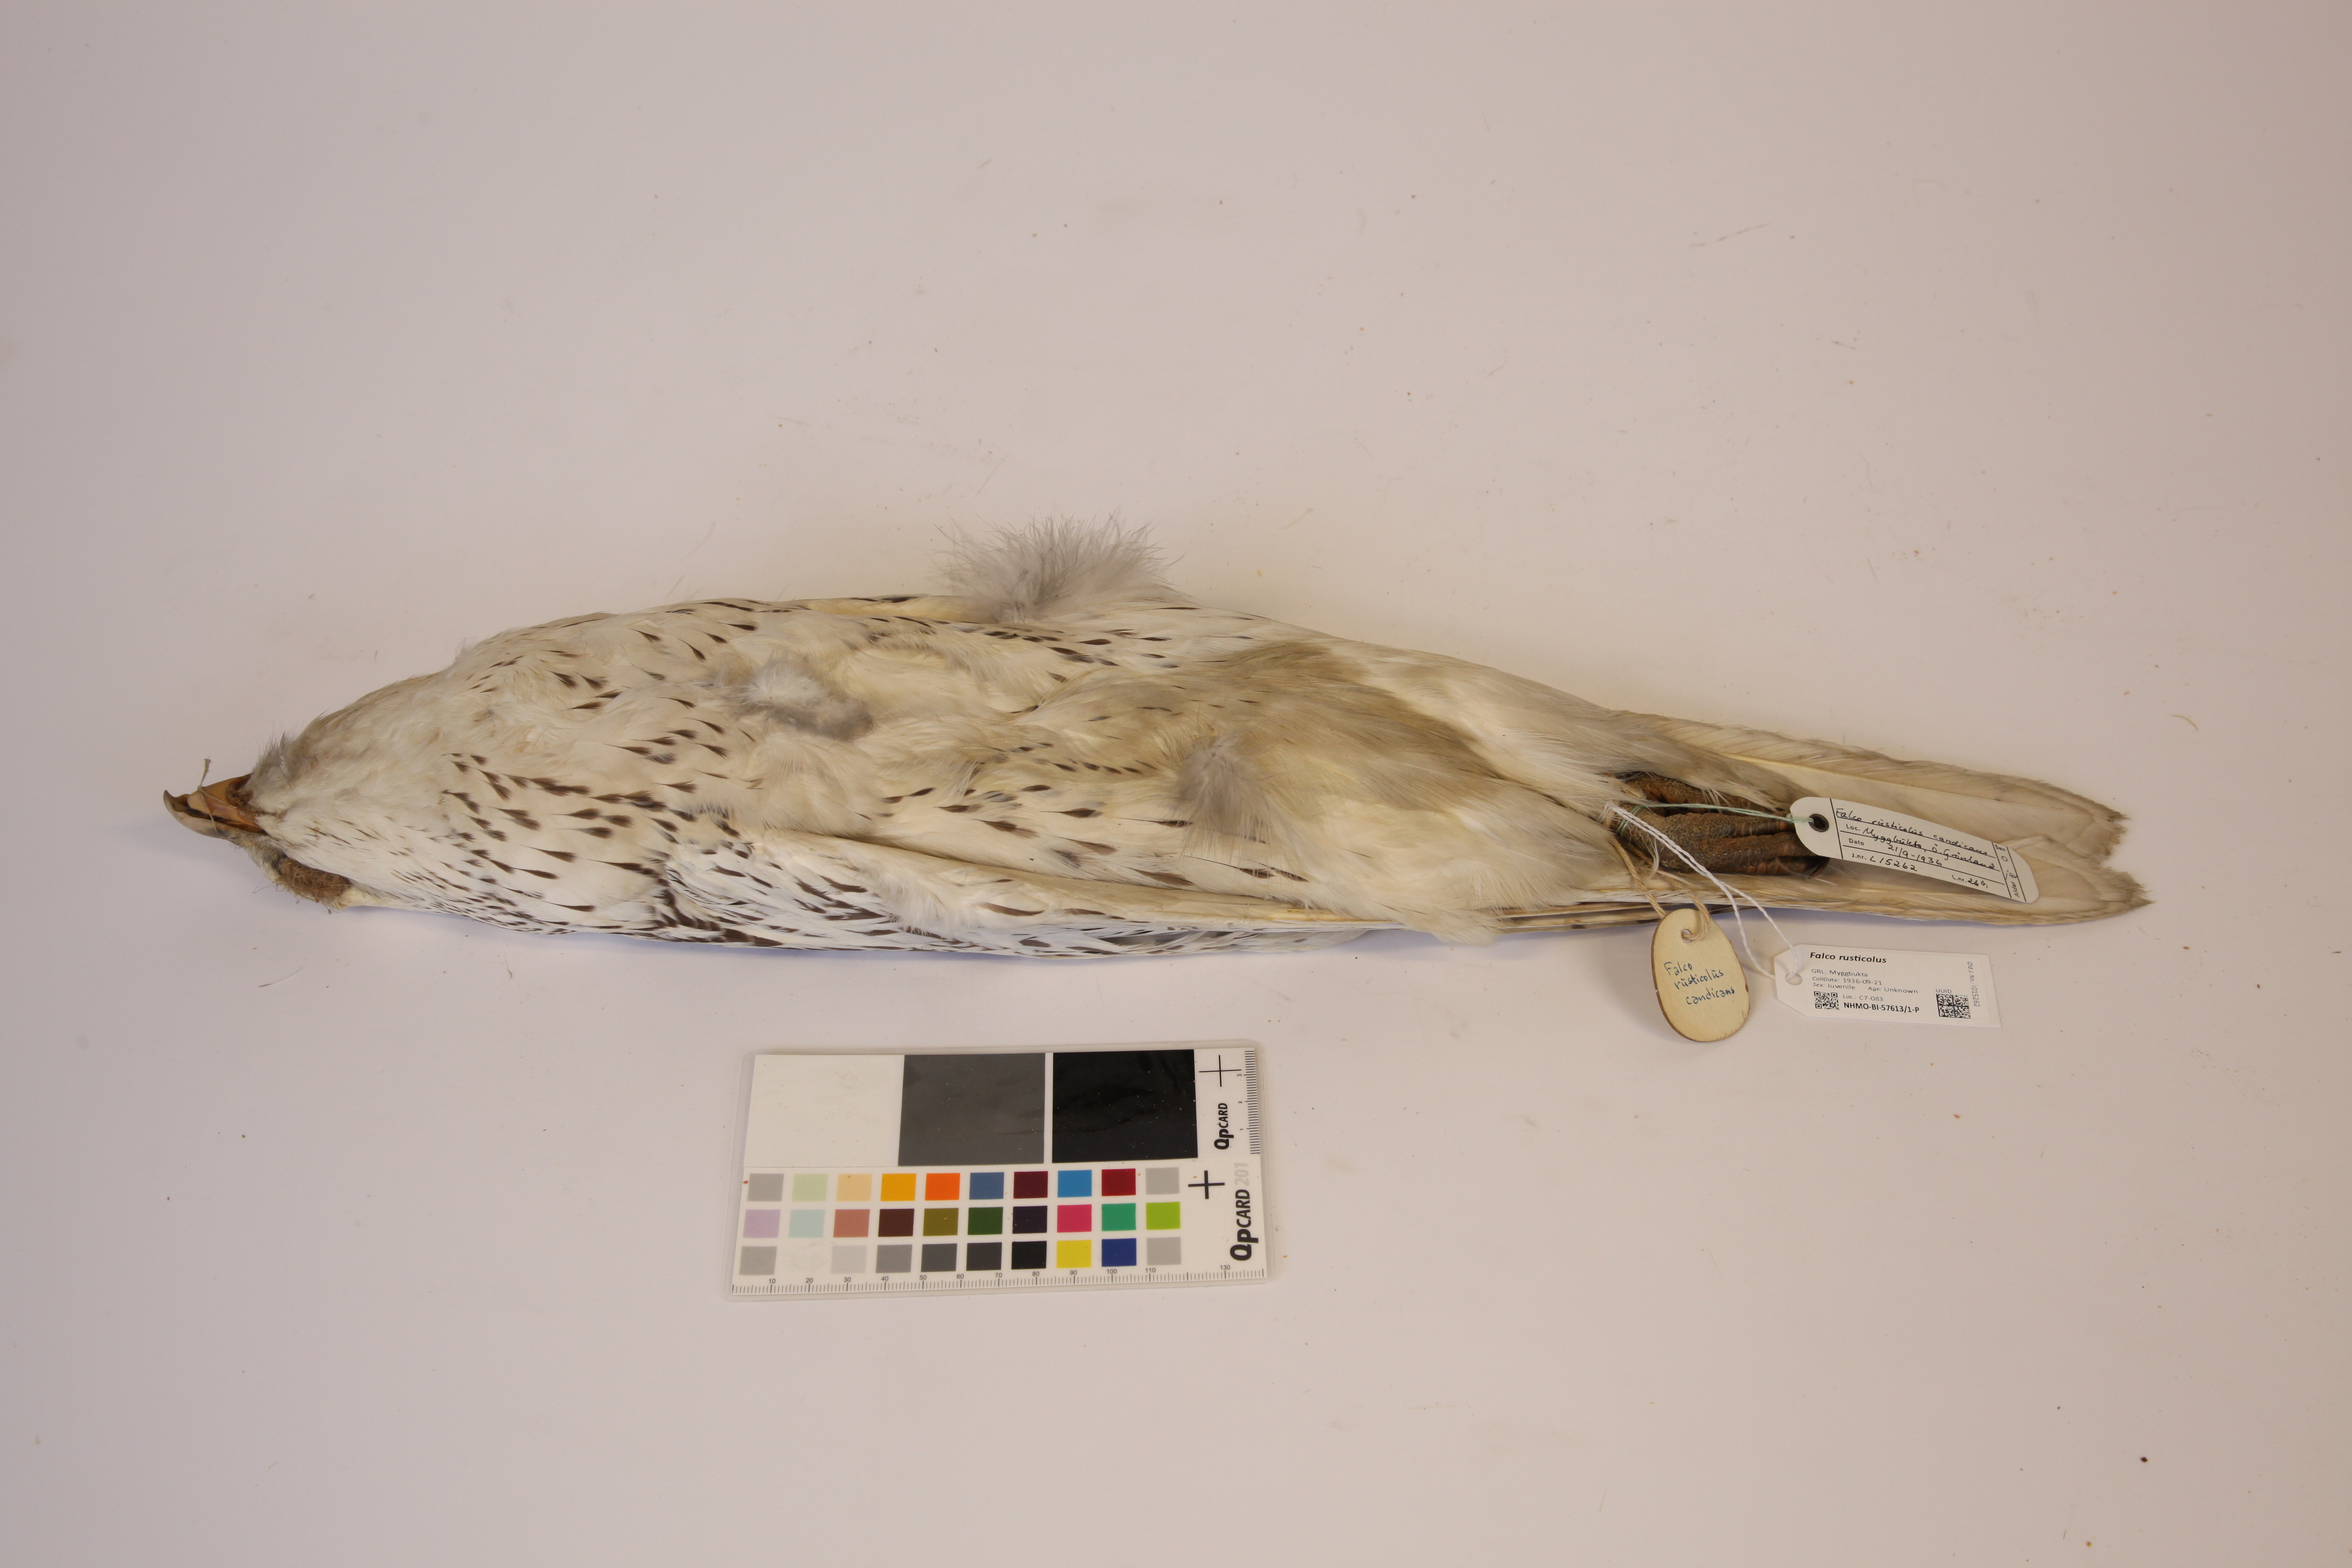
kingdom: Animalia
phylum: Chordata
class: Aves
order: Falconiformes
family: Falconidae
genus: Falco
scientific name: Falco rusticolus
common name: Gyrfalcon
